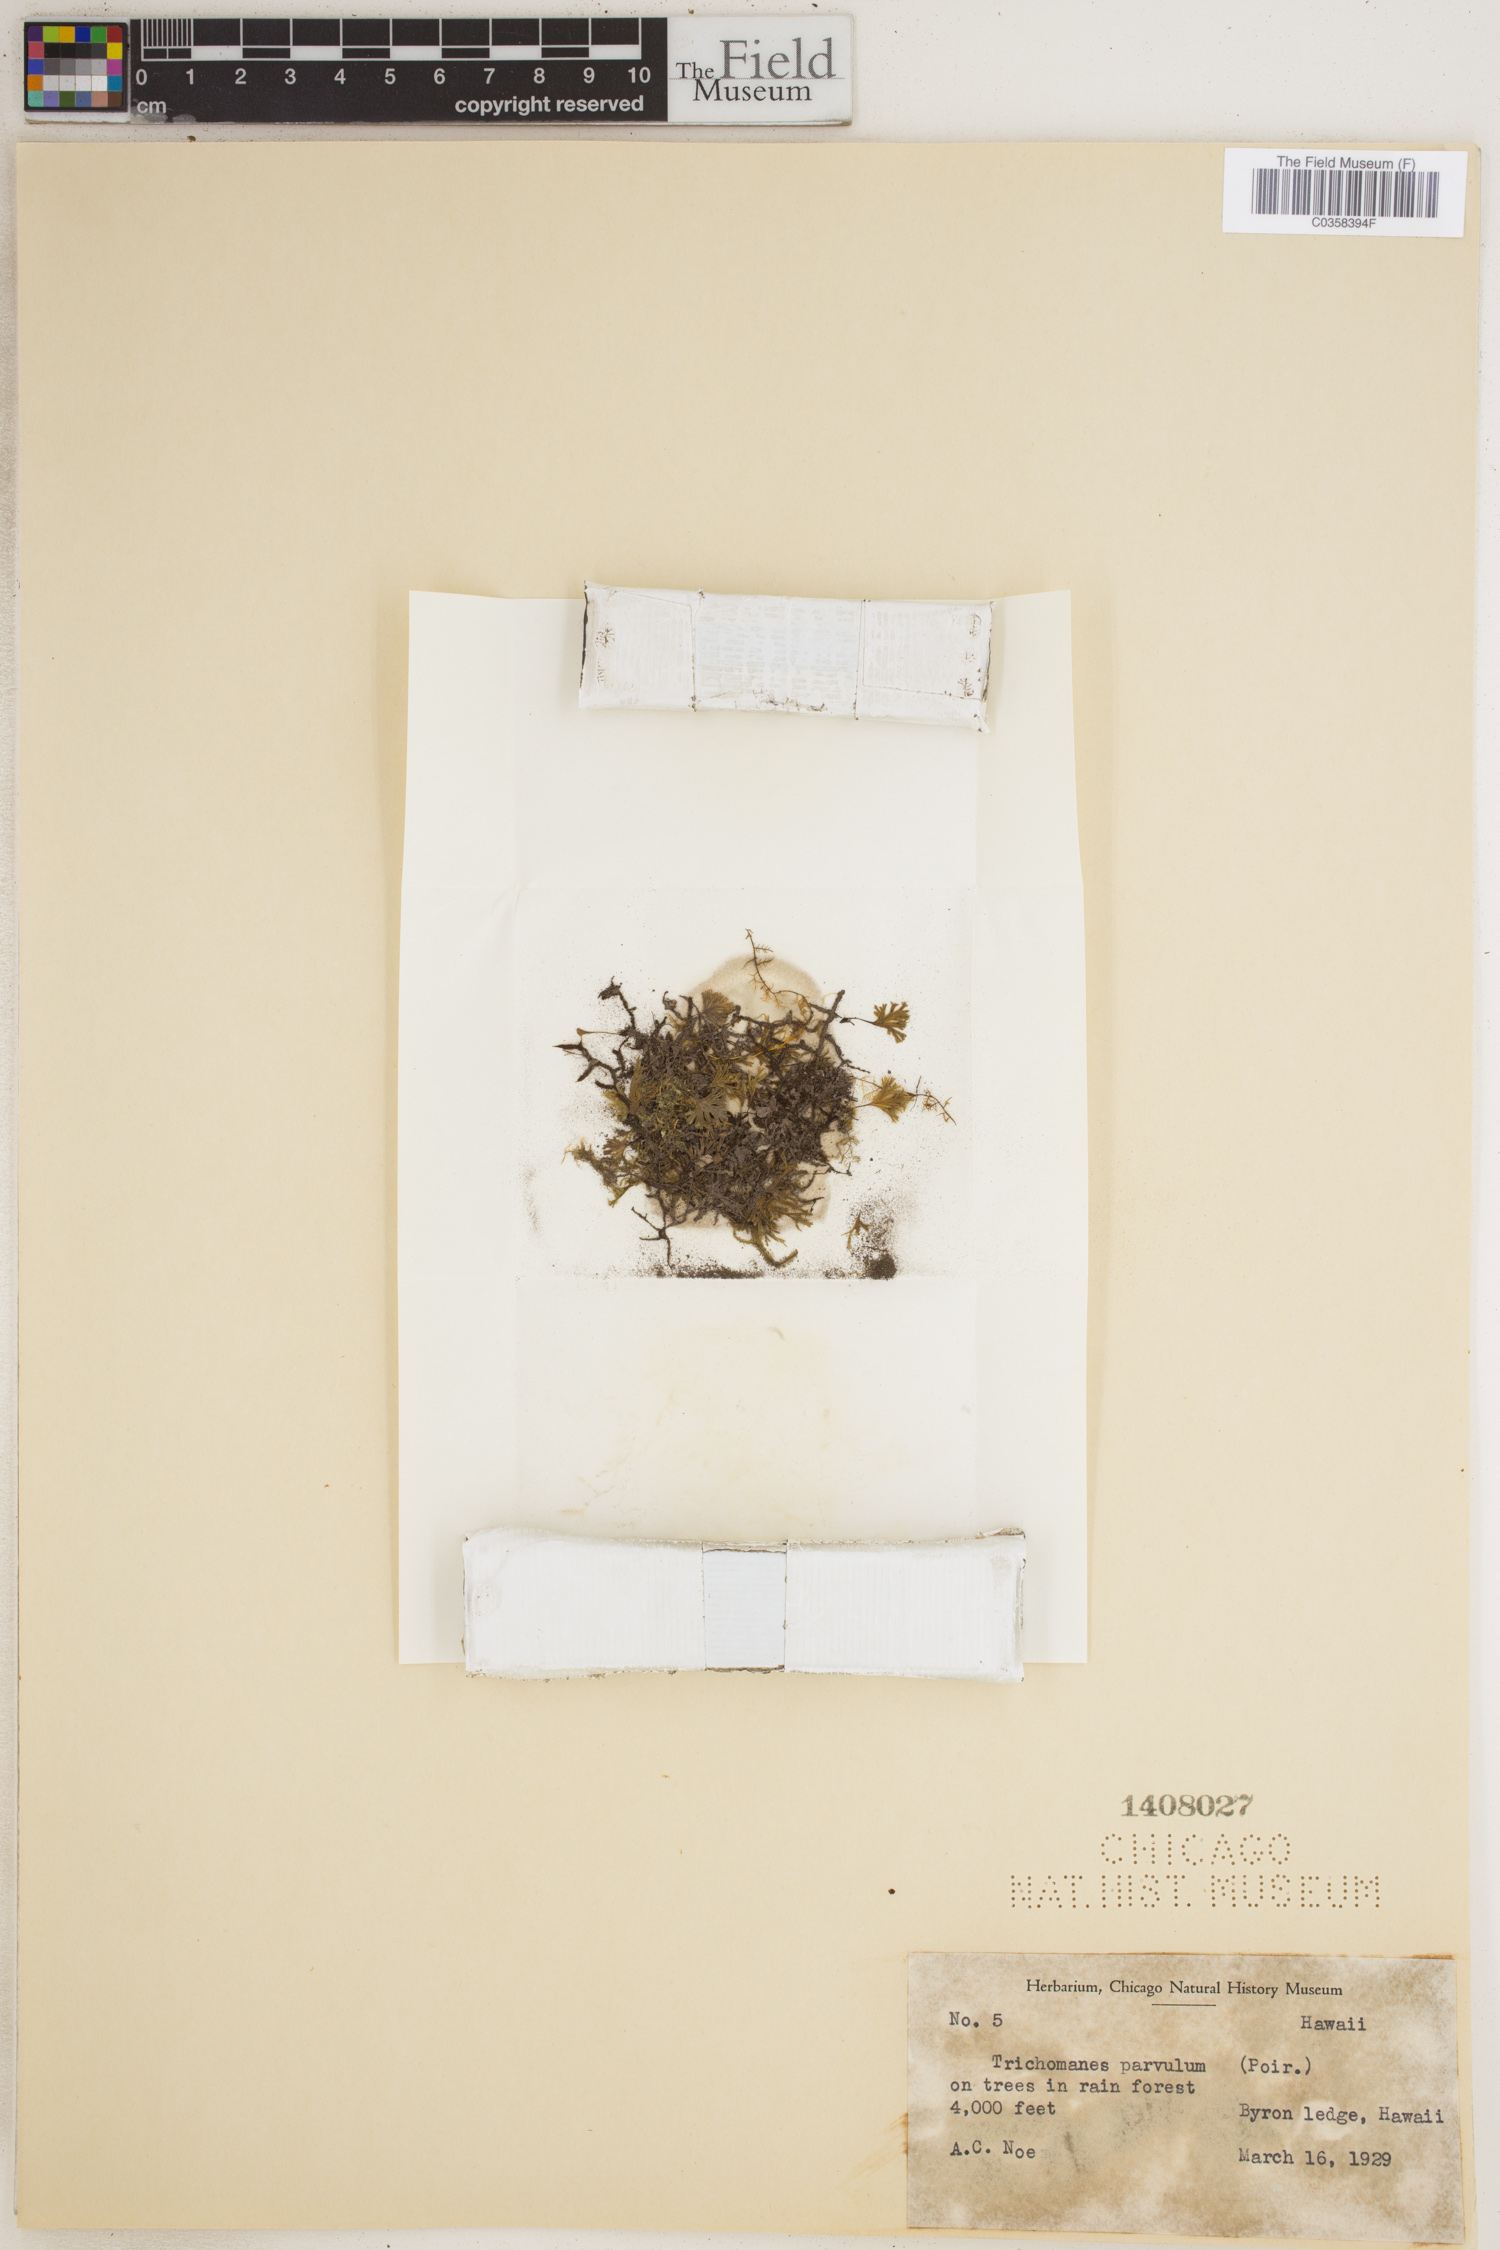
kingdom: Plantae
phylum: Tracheophyta
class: Polypodiopsida
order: Hymenophyllales
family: Hymenophyllaceae
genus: Crepidomanes
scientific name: Crepidomanes parvulum
